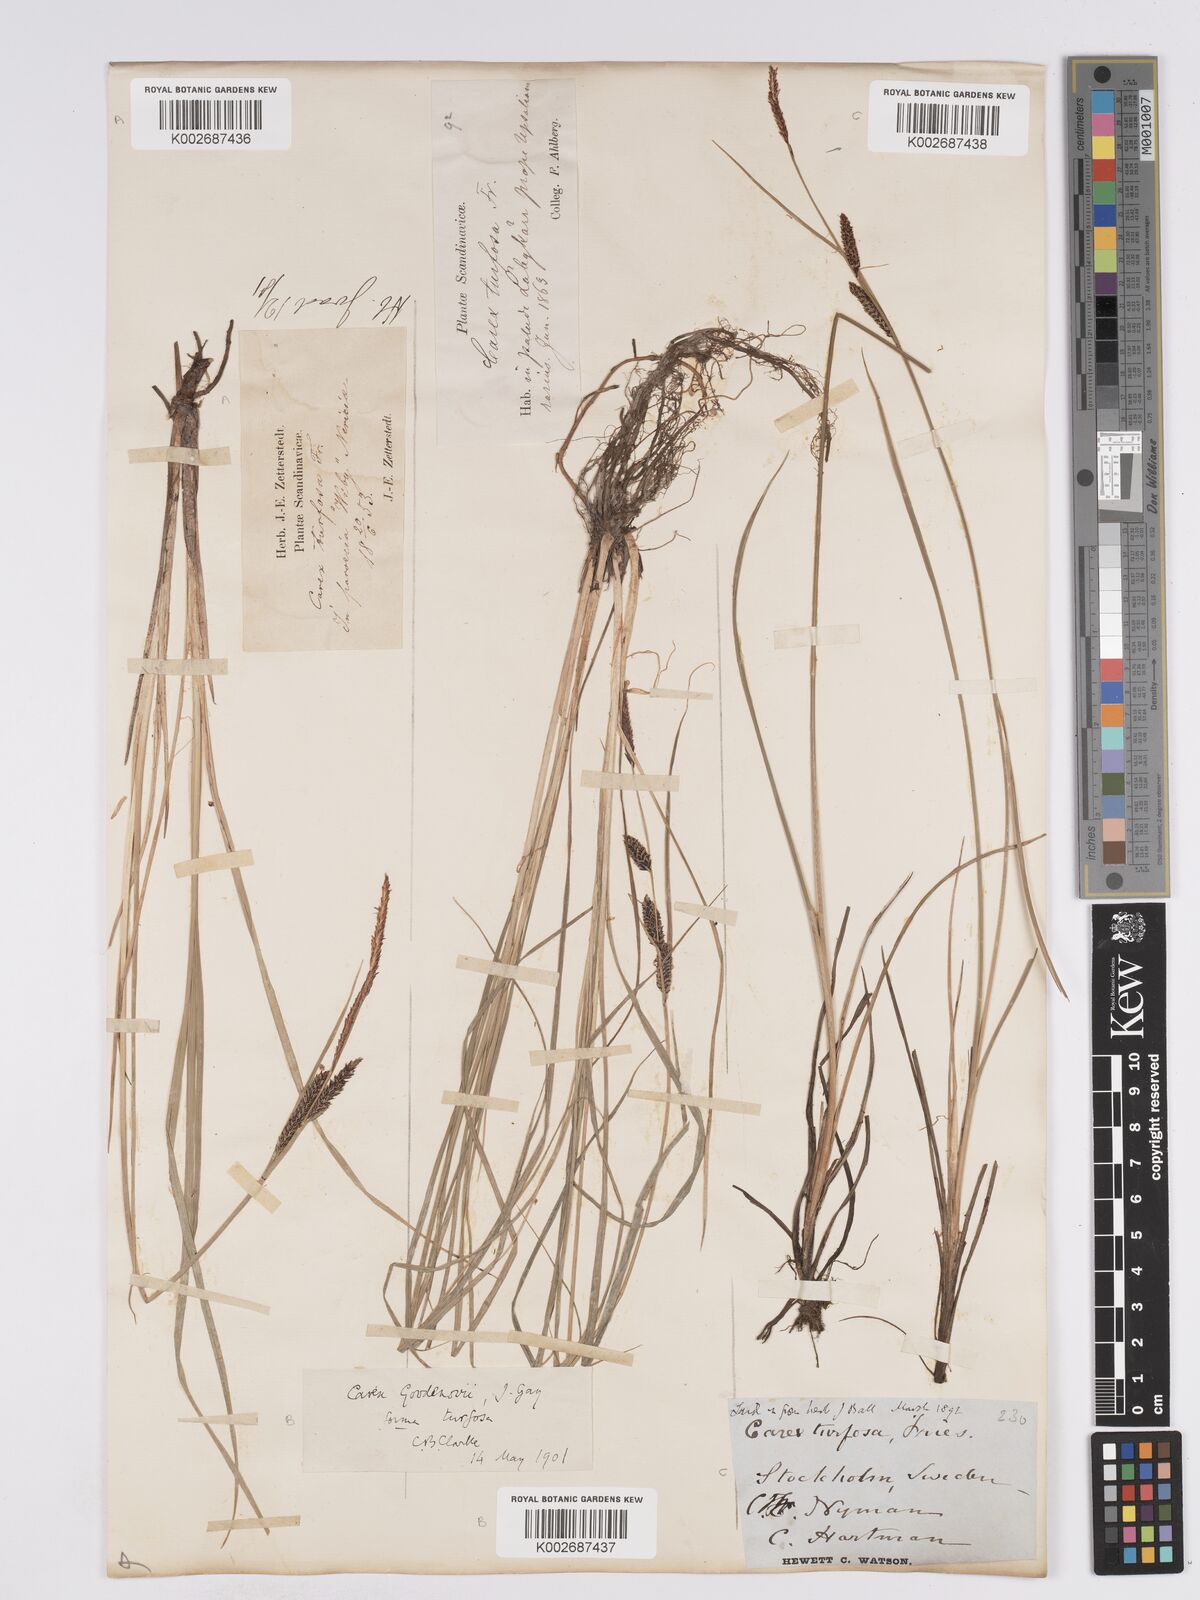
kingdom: Plantae
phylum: Tracheophyta
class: Liliopsida
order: Poales
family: Cyperaceae
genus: Carex
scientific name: Carex nigra
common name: Common sedge
